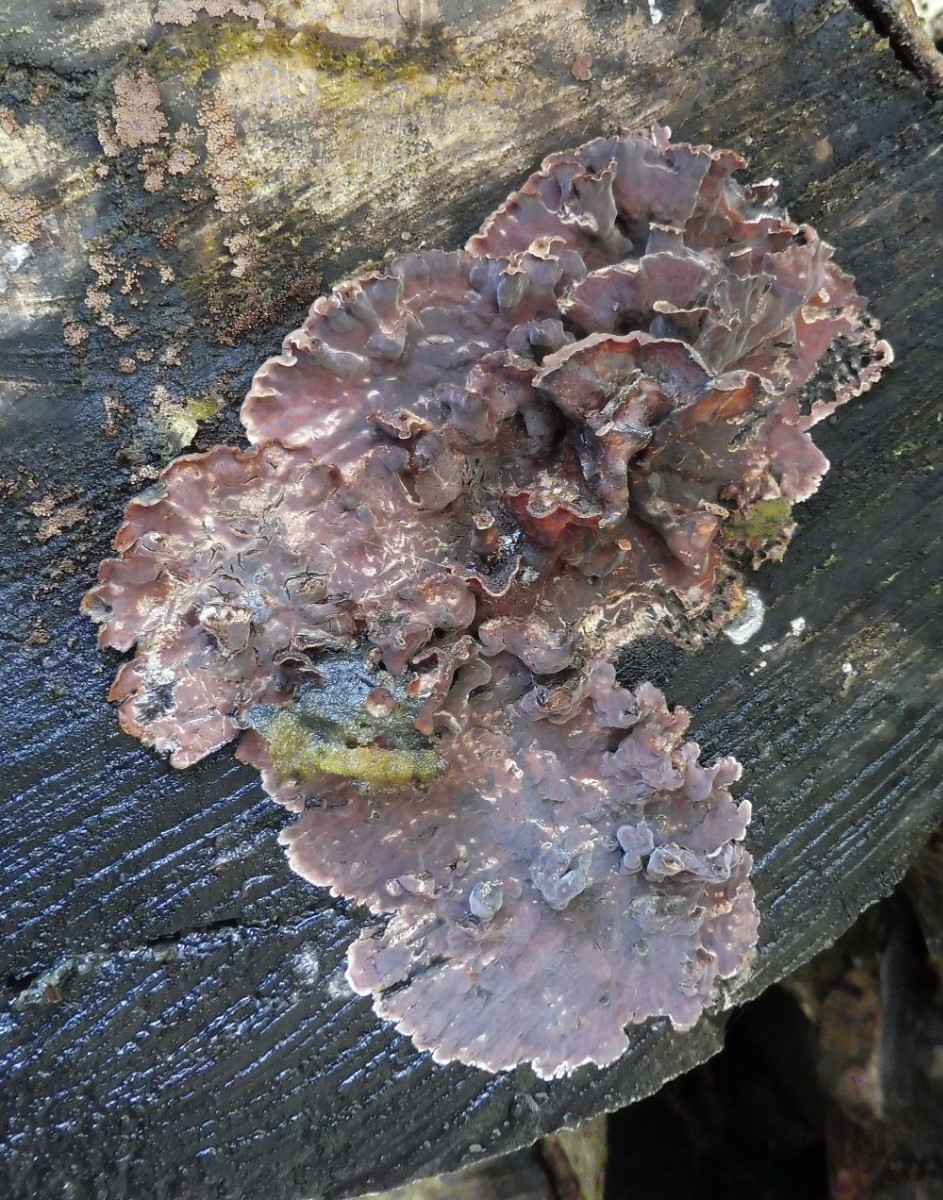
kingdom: Fungi
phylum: Basidiomycota
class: Agaricomycetes
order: Agaricales
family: Cyphellaceae
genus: Chondrostereum
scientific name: Chondrostereum purpureum
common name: purpurlædersvamp
